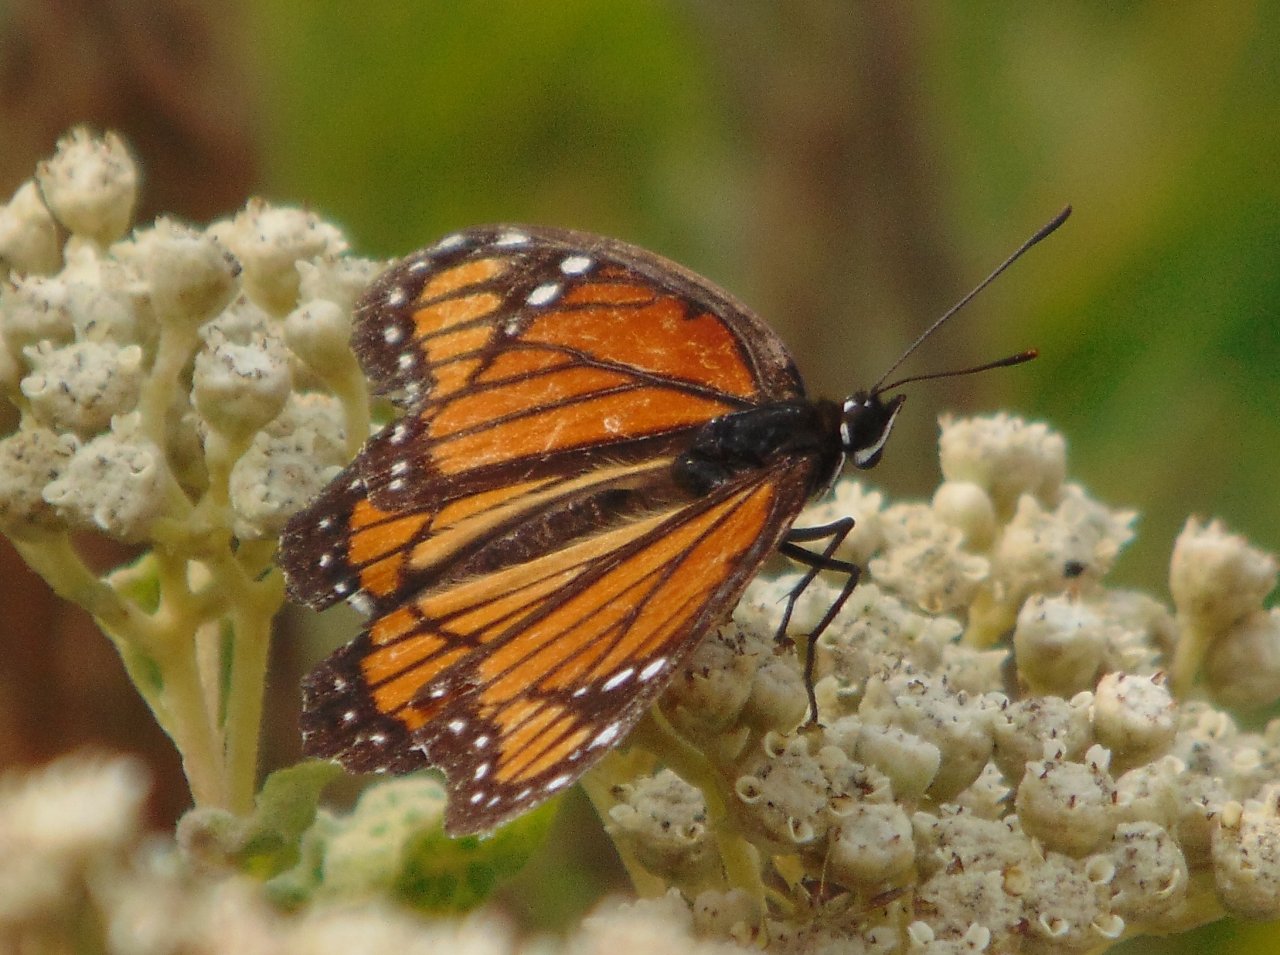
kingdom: Animalia
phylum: Arthropoda
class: Insecta
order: Lepidoptera
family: Nymphalidae
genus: Limenitis
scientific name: Limenitis archippus
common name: Viceroy
